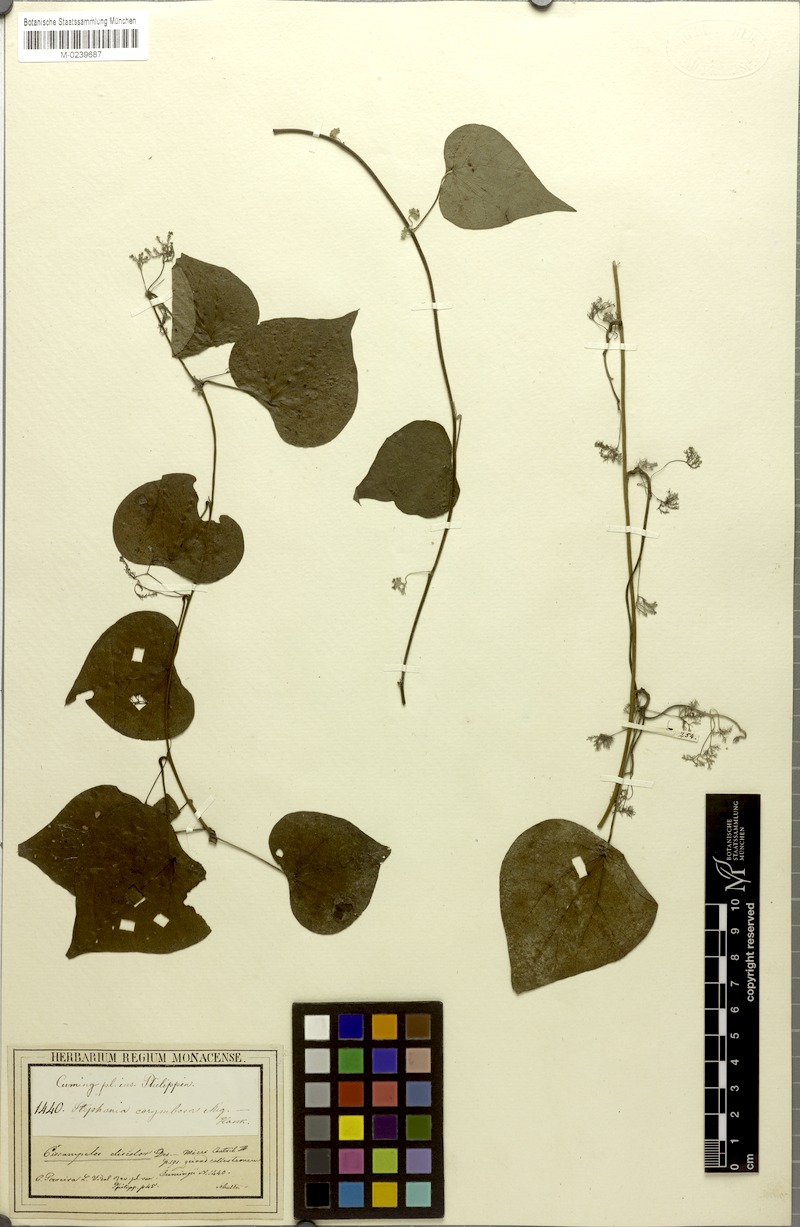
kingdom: Plantae
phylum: Tracheophyta
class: Magnoliopsida
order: Ranunculales
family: Menispermaceae
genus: Cissampelos
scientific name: Cissampelos pareira
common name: Velvetleaf
